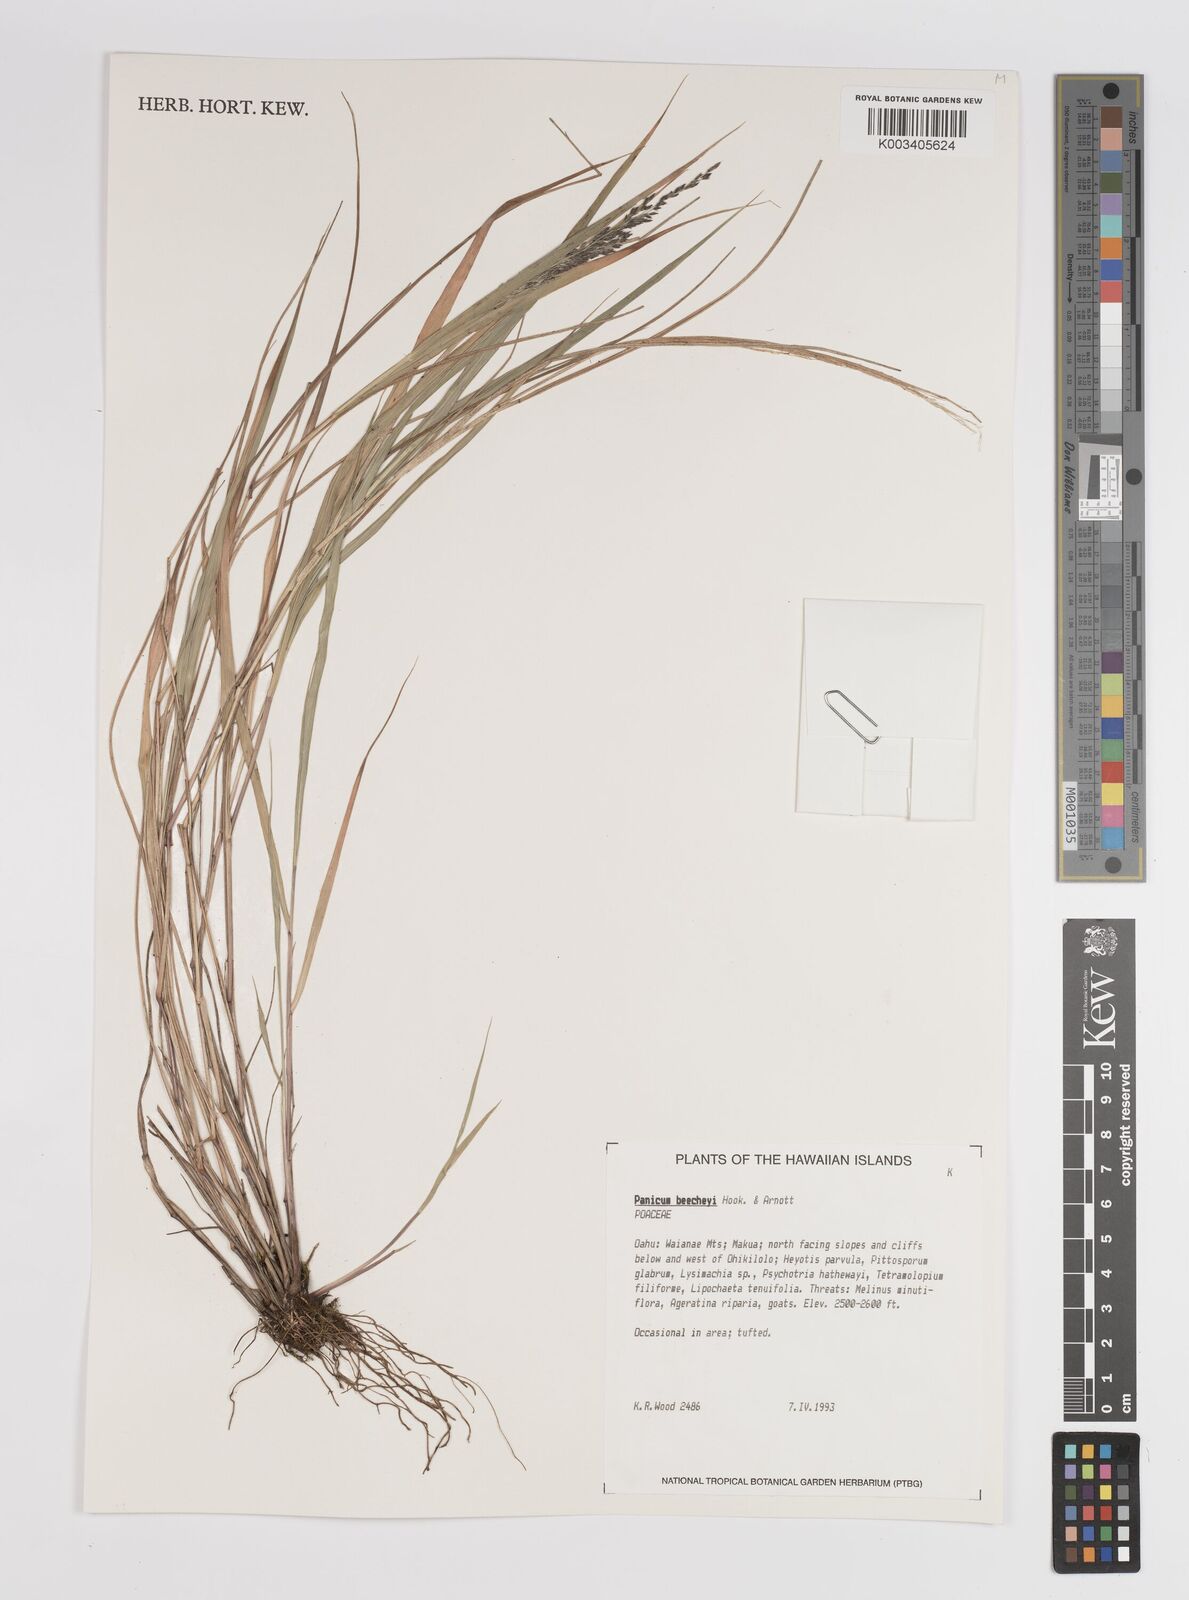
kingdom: Plantae
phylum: Tracheophyta
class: Liliopsida
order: Poales
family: Poaceae
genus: Panicum
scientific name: Panicum beecheyi
